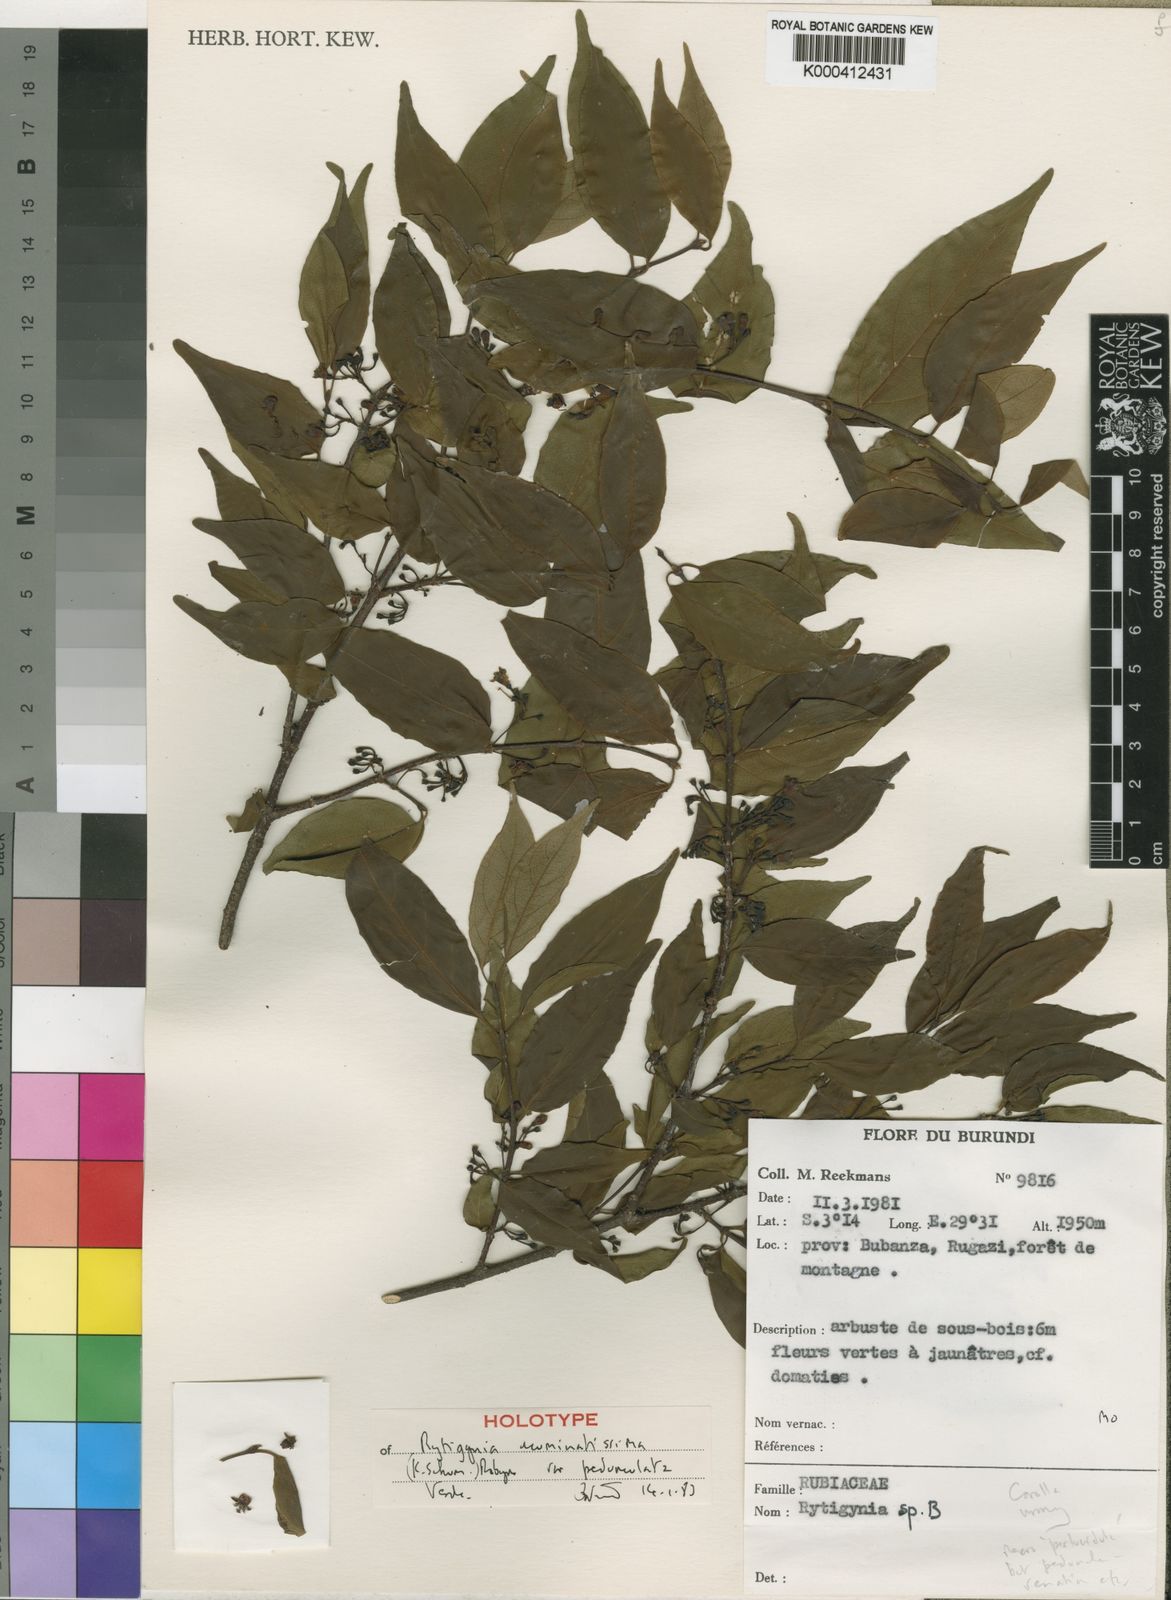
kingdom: Plantae
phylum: Tracheophyta
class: Magnoliopsida
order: Gentianales
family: Rubiaceae
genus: Rytigynia
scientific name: Rytigynia acuminatissima
